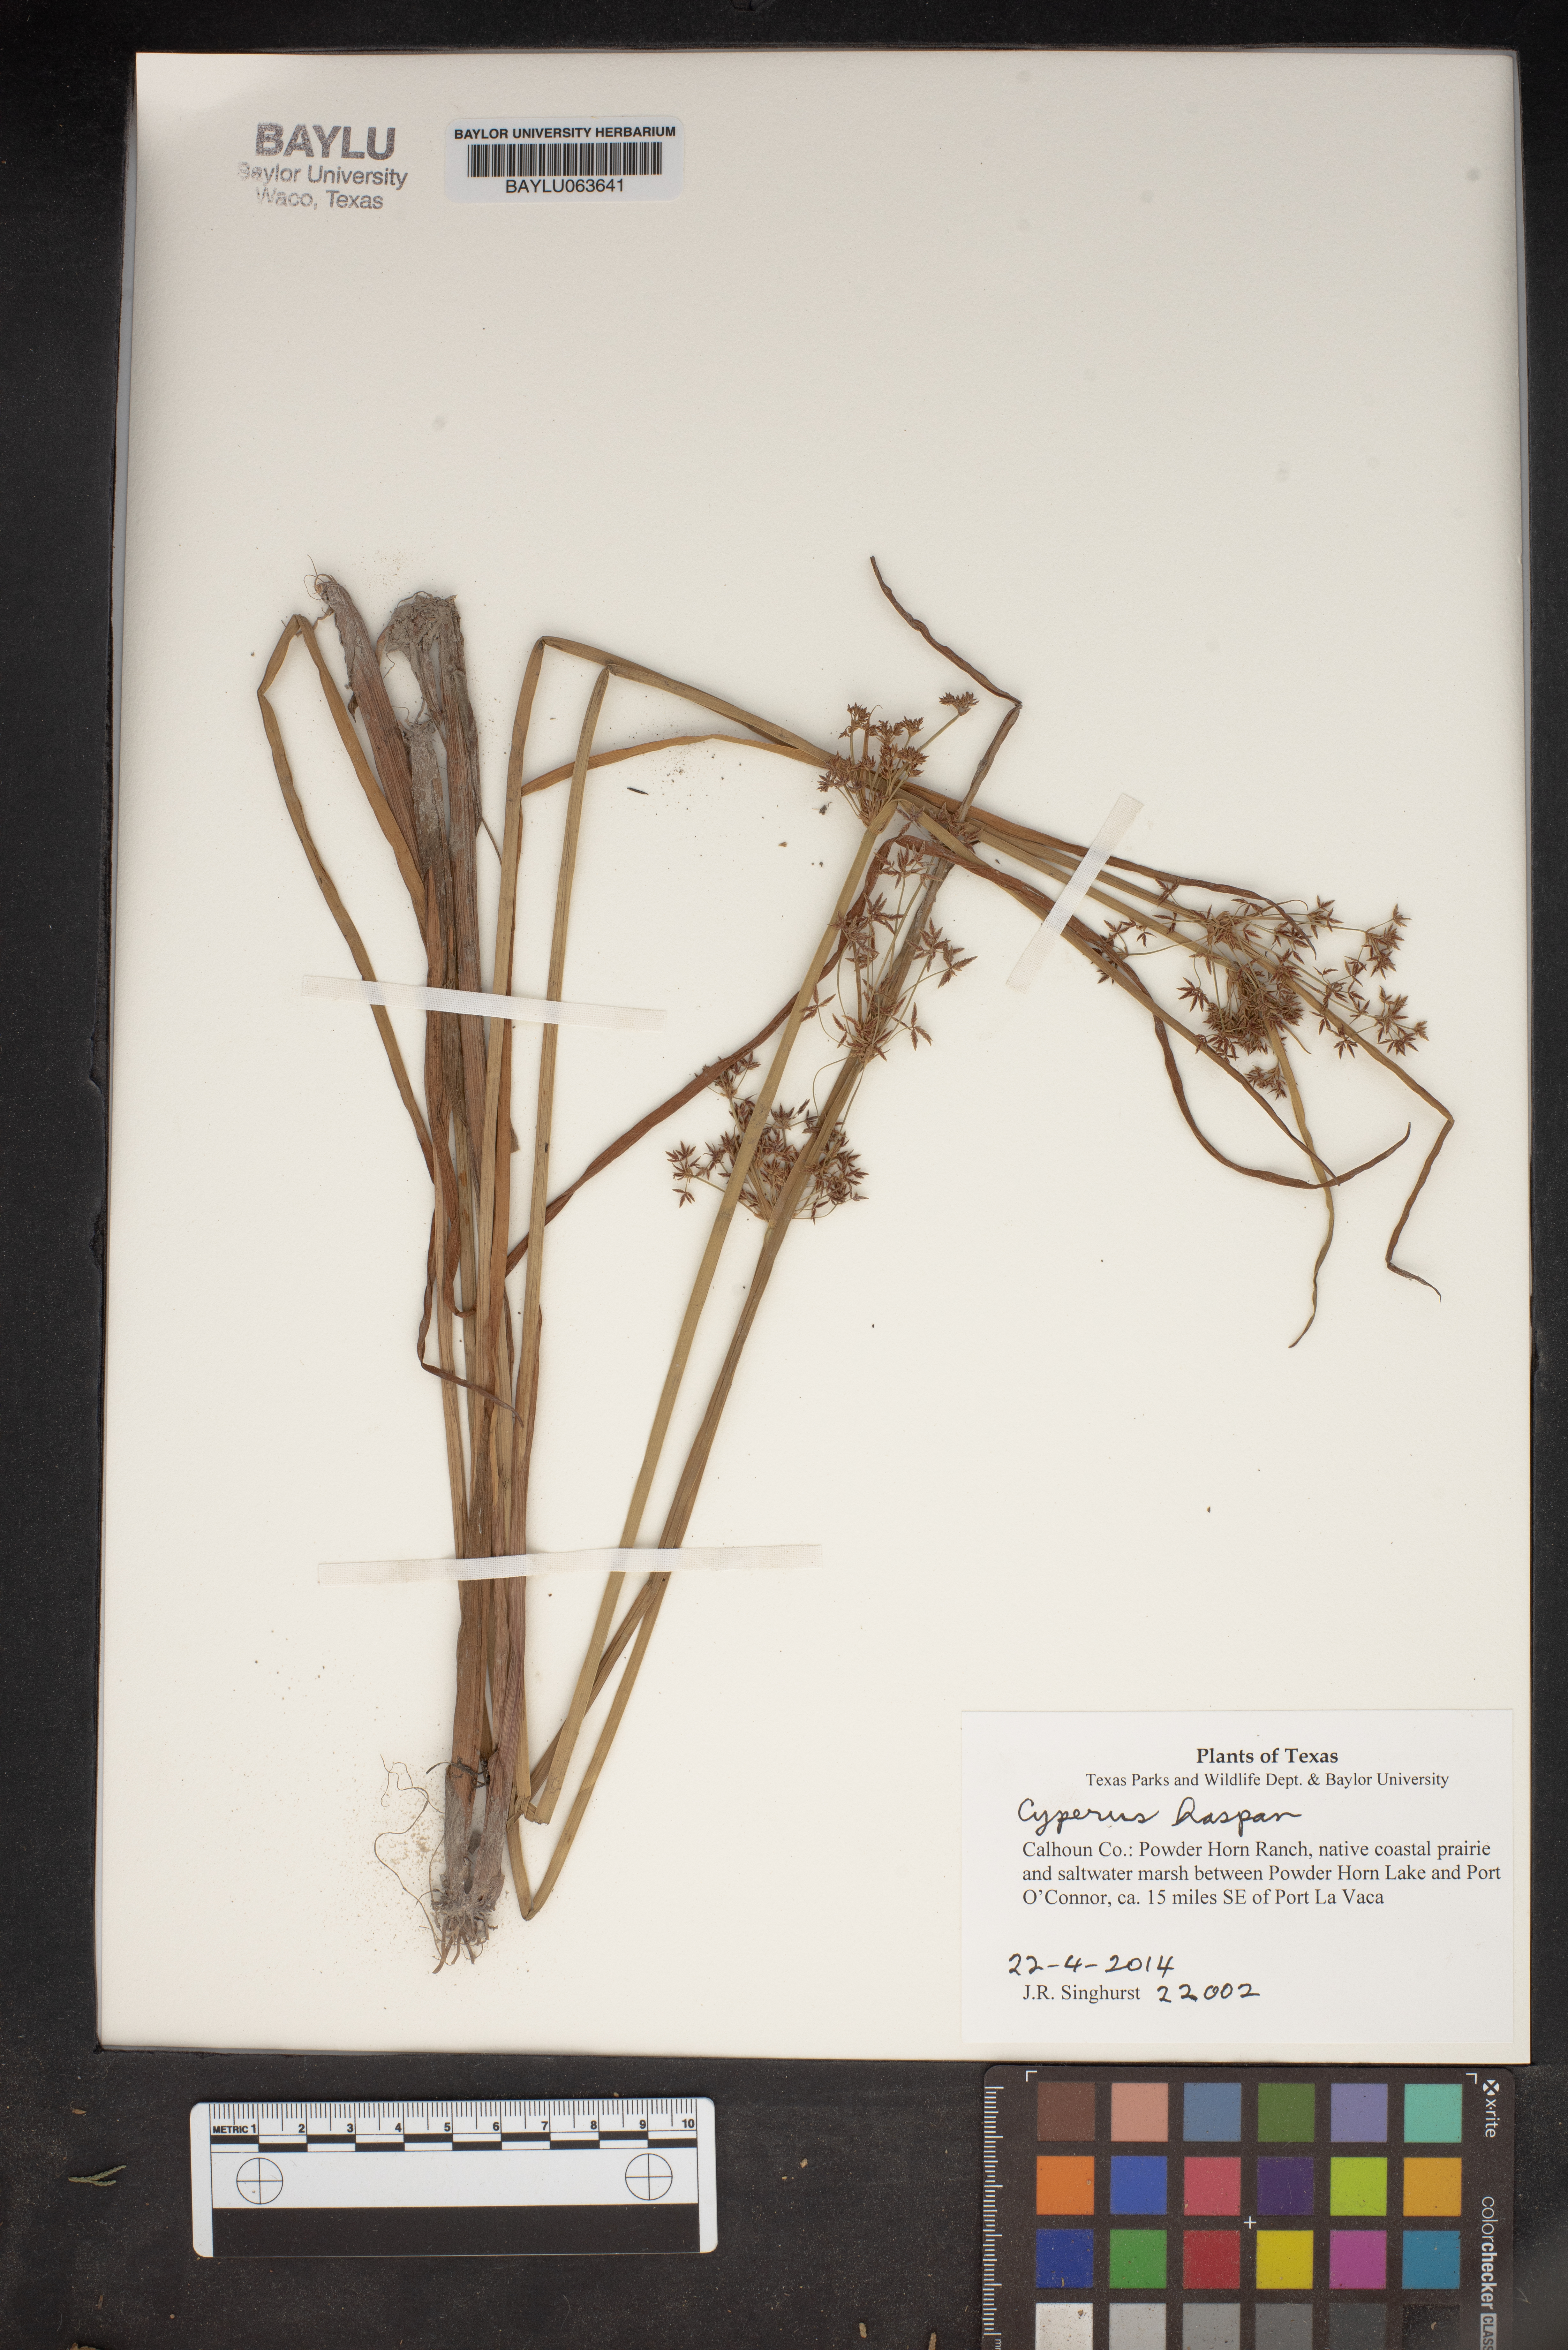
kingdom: Plantae
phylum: Tracheophyta
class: Liliopsida
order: Poales
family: Cyperaceae
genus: Cyperus
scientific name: Cyperus haspan
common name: Haspan flatsedge
